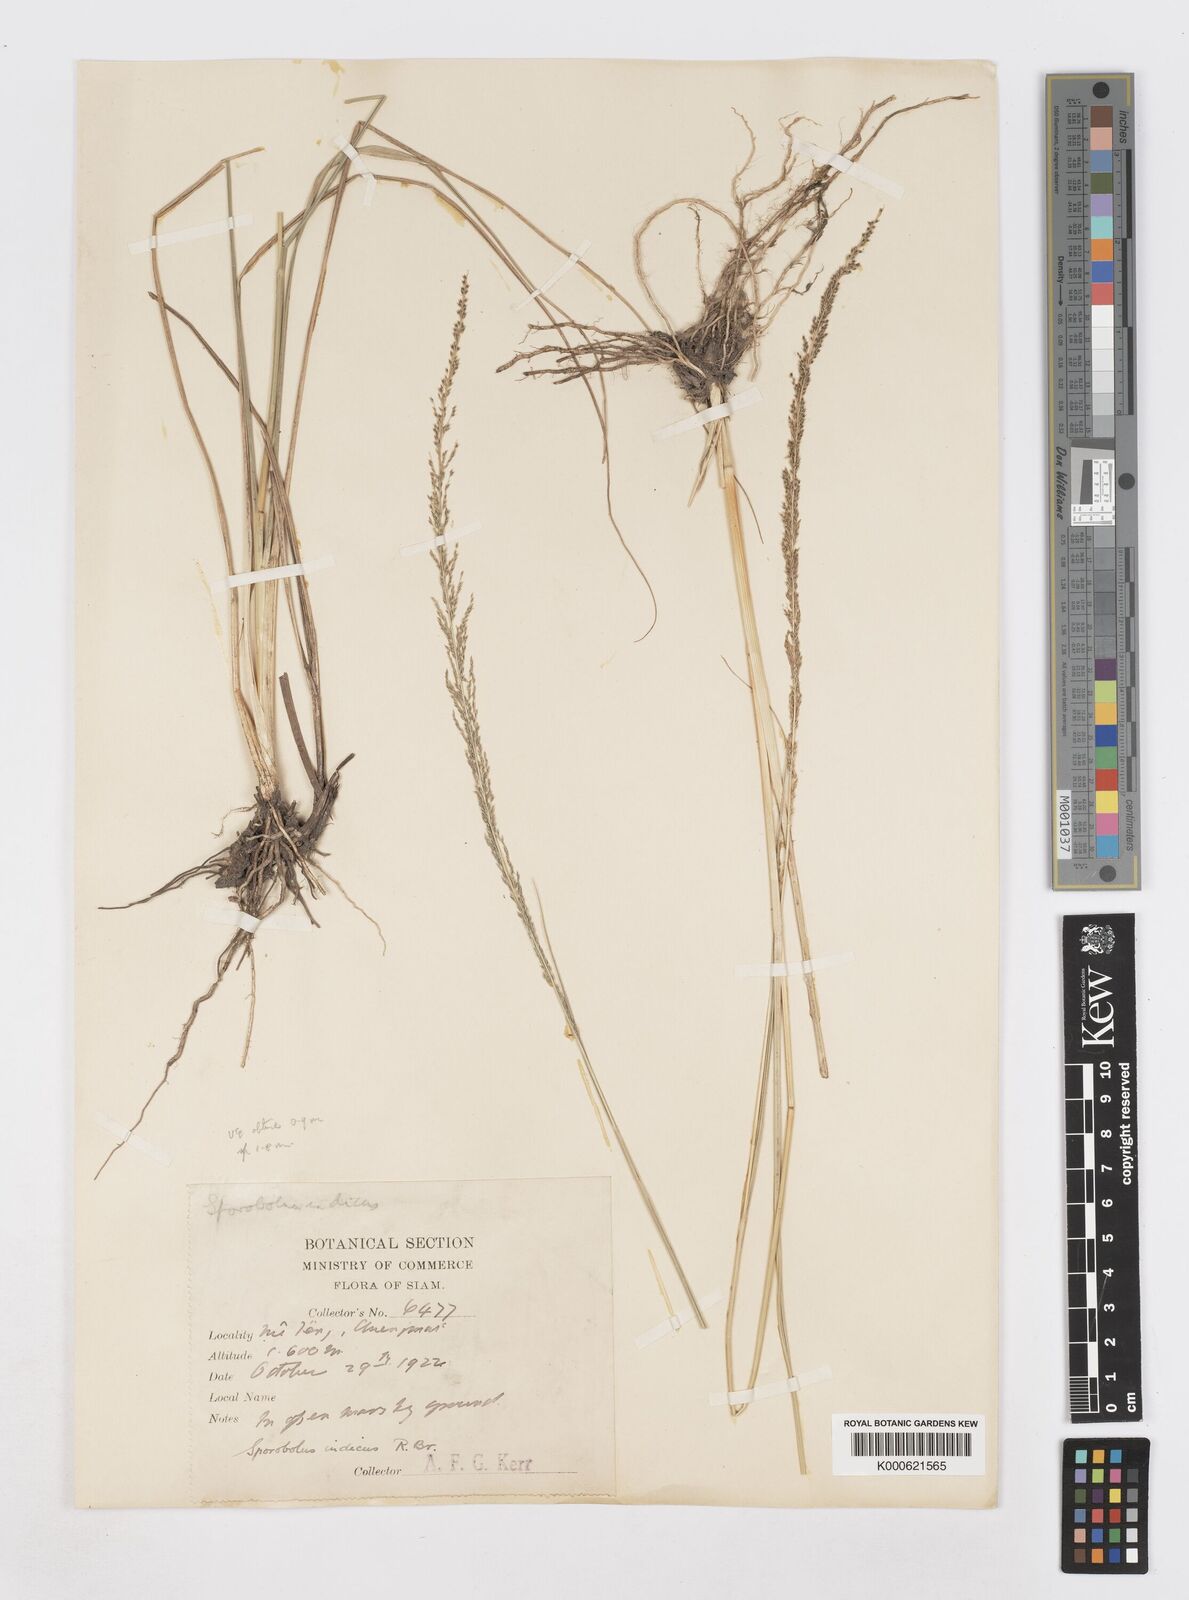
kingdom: Plantae
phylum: Tracheophyta
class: Liliopsida
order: Poales
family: Poaceae
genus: Sporobolus
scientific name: Sporobolus indicus
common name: Smut grass
